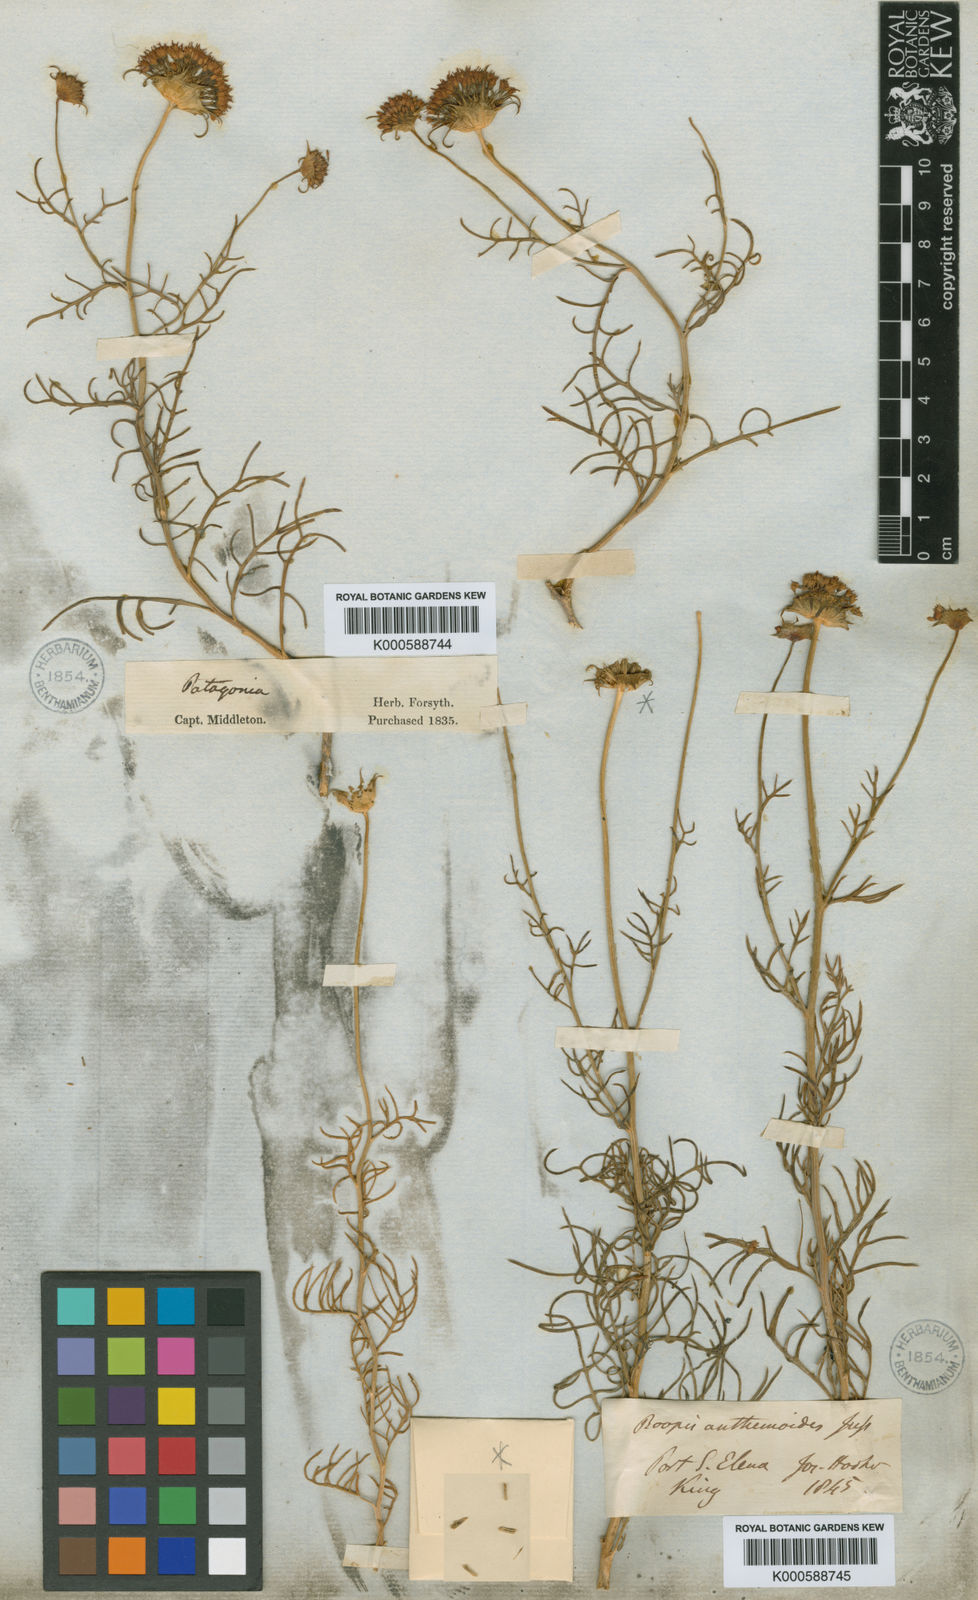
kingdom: Plantae
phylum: Tracheophyta
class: Magnoliopsida
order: Asterales
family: Calyceraceae
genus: Boopis
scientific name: Boopis anthemoides
